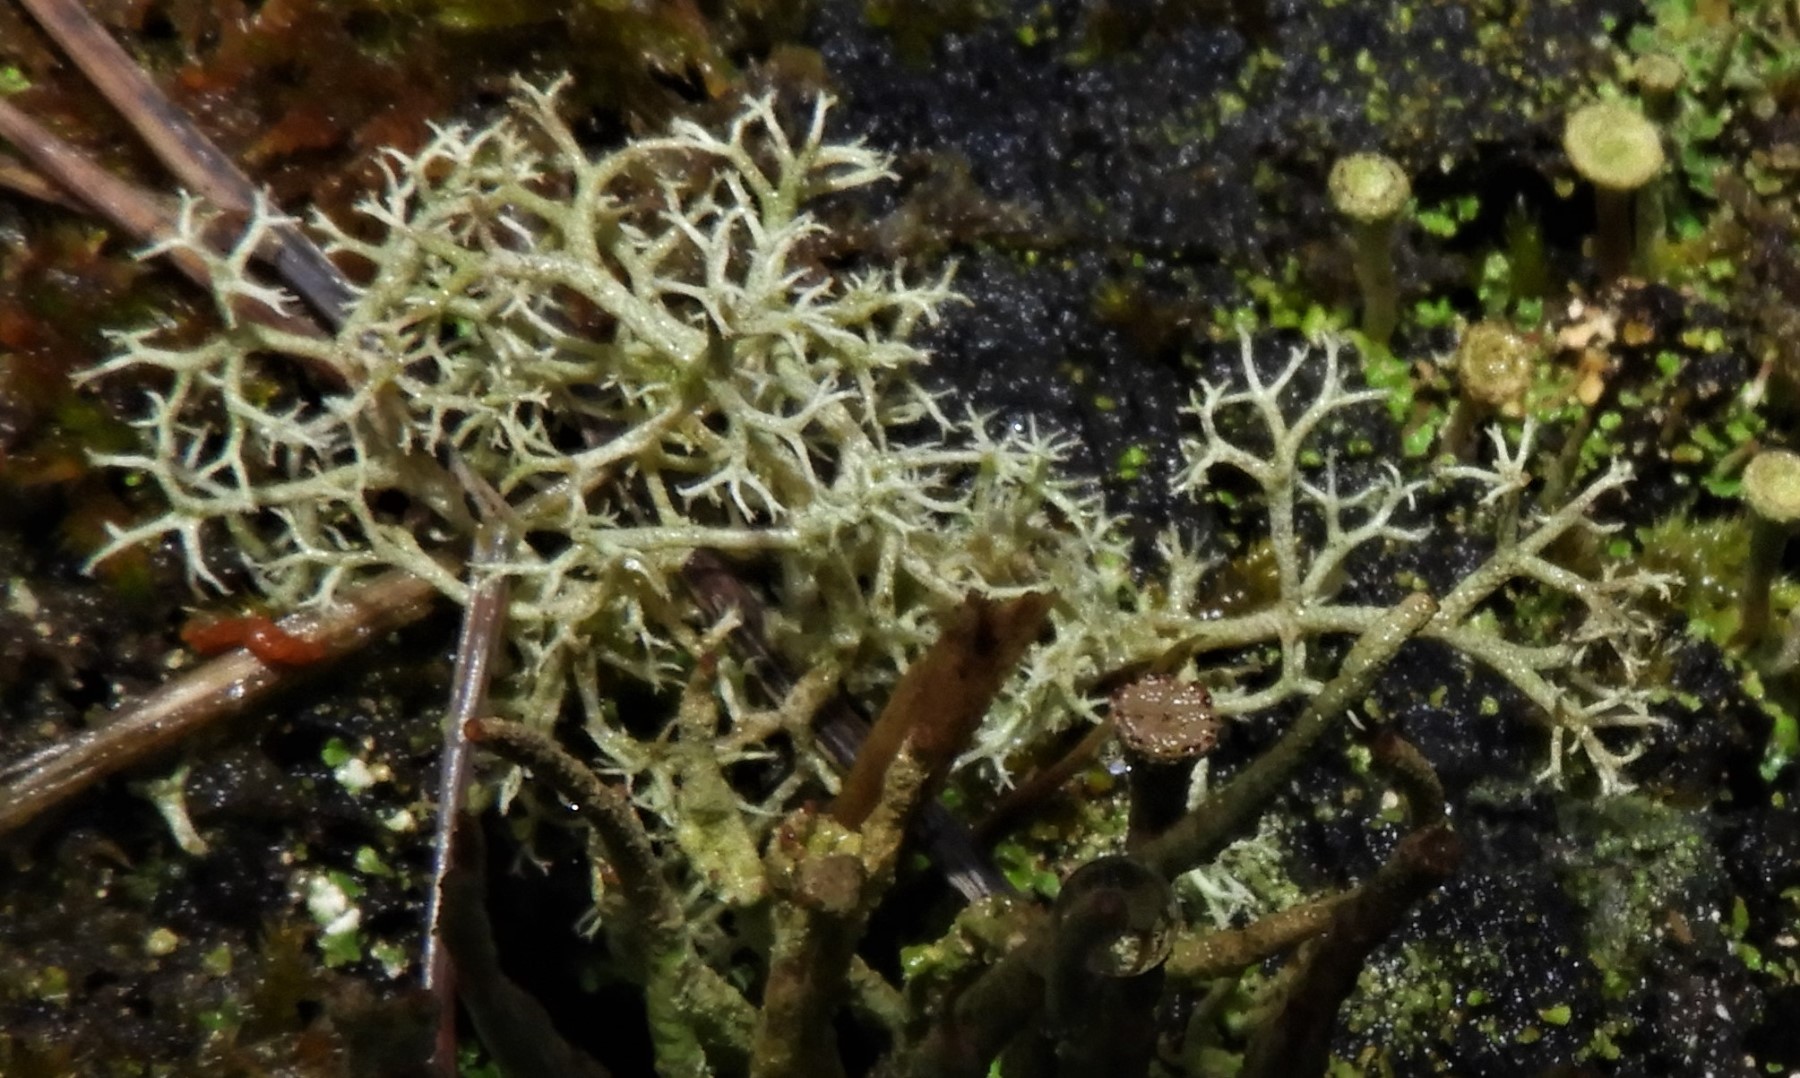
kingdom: Fungi
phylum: Ascomycota
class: Lecanoromycetes
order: Lecanorales
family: Cladoniaceae
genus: Cladonia
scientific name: Cladonia portentosa
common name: hede-rensdyrlav
